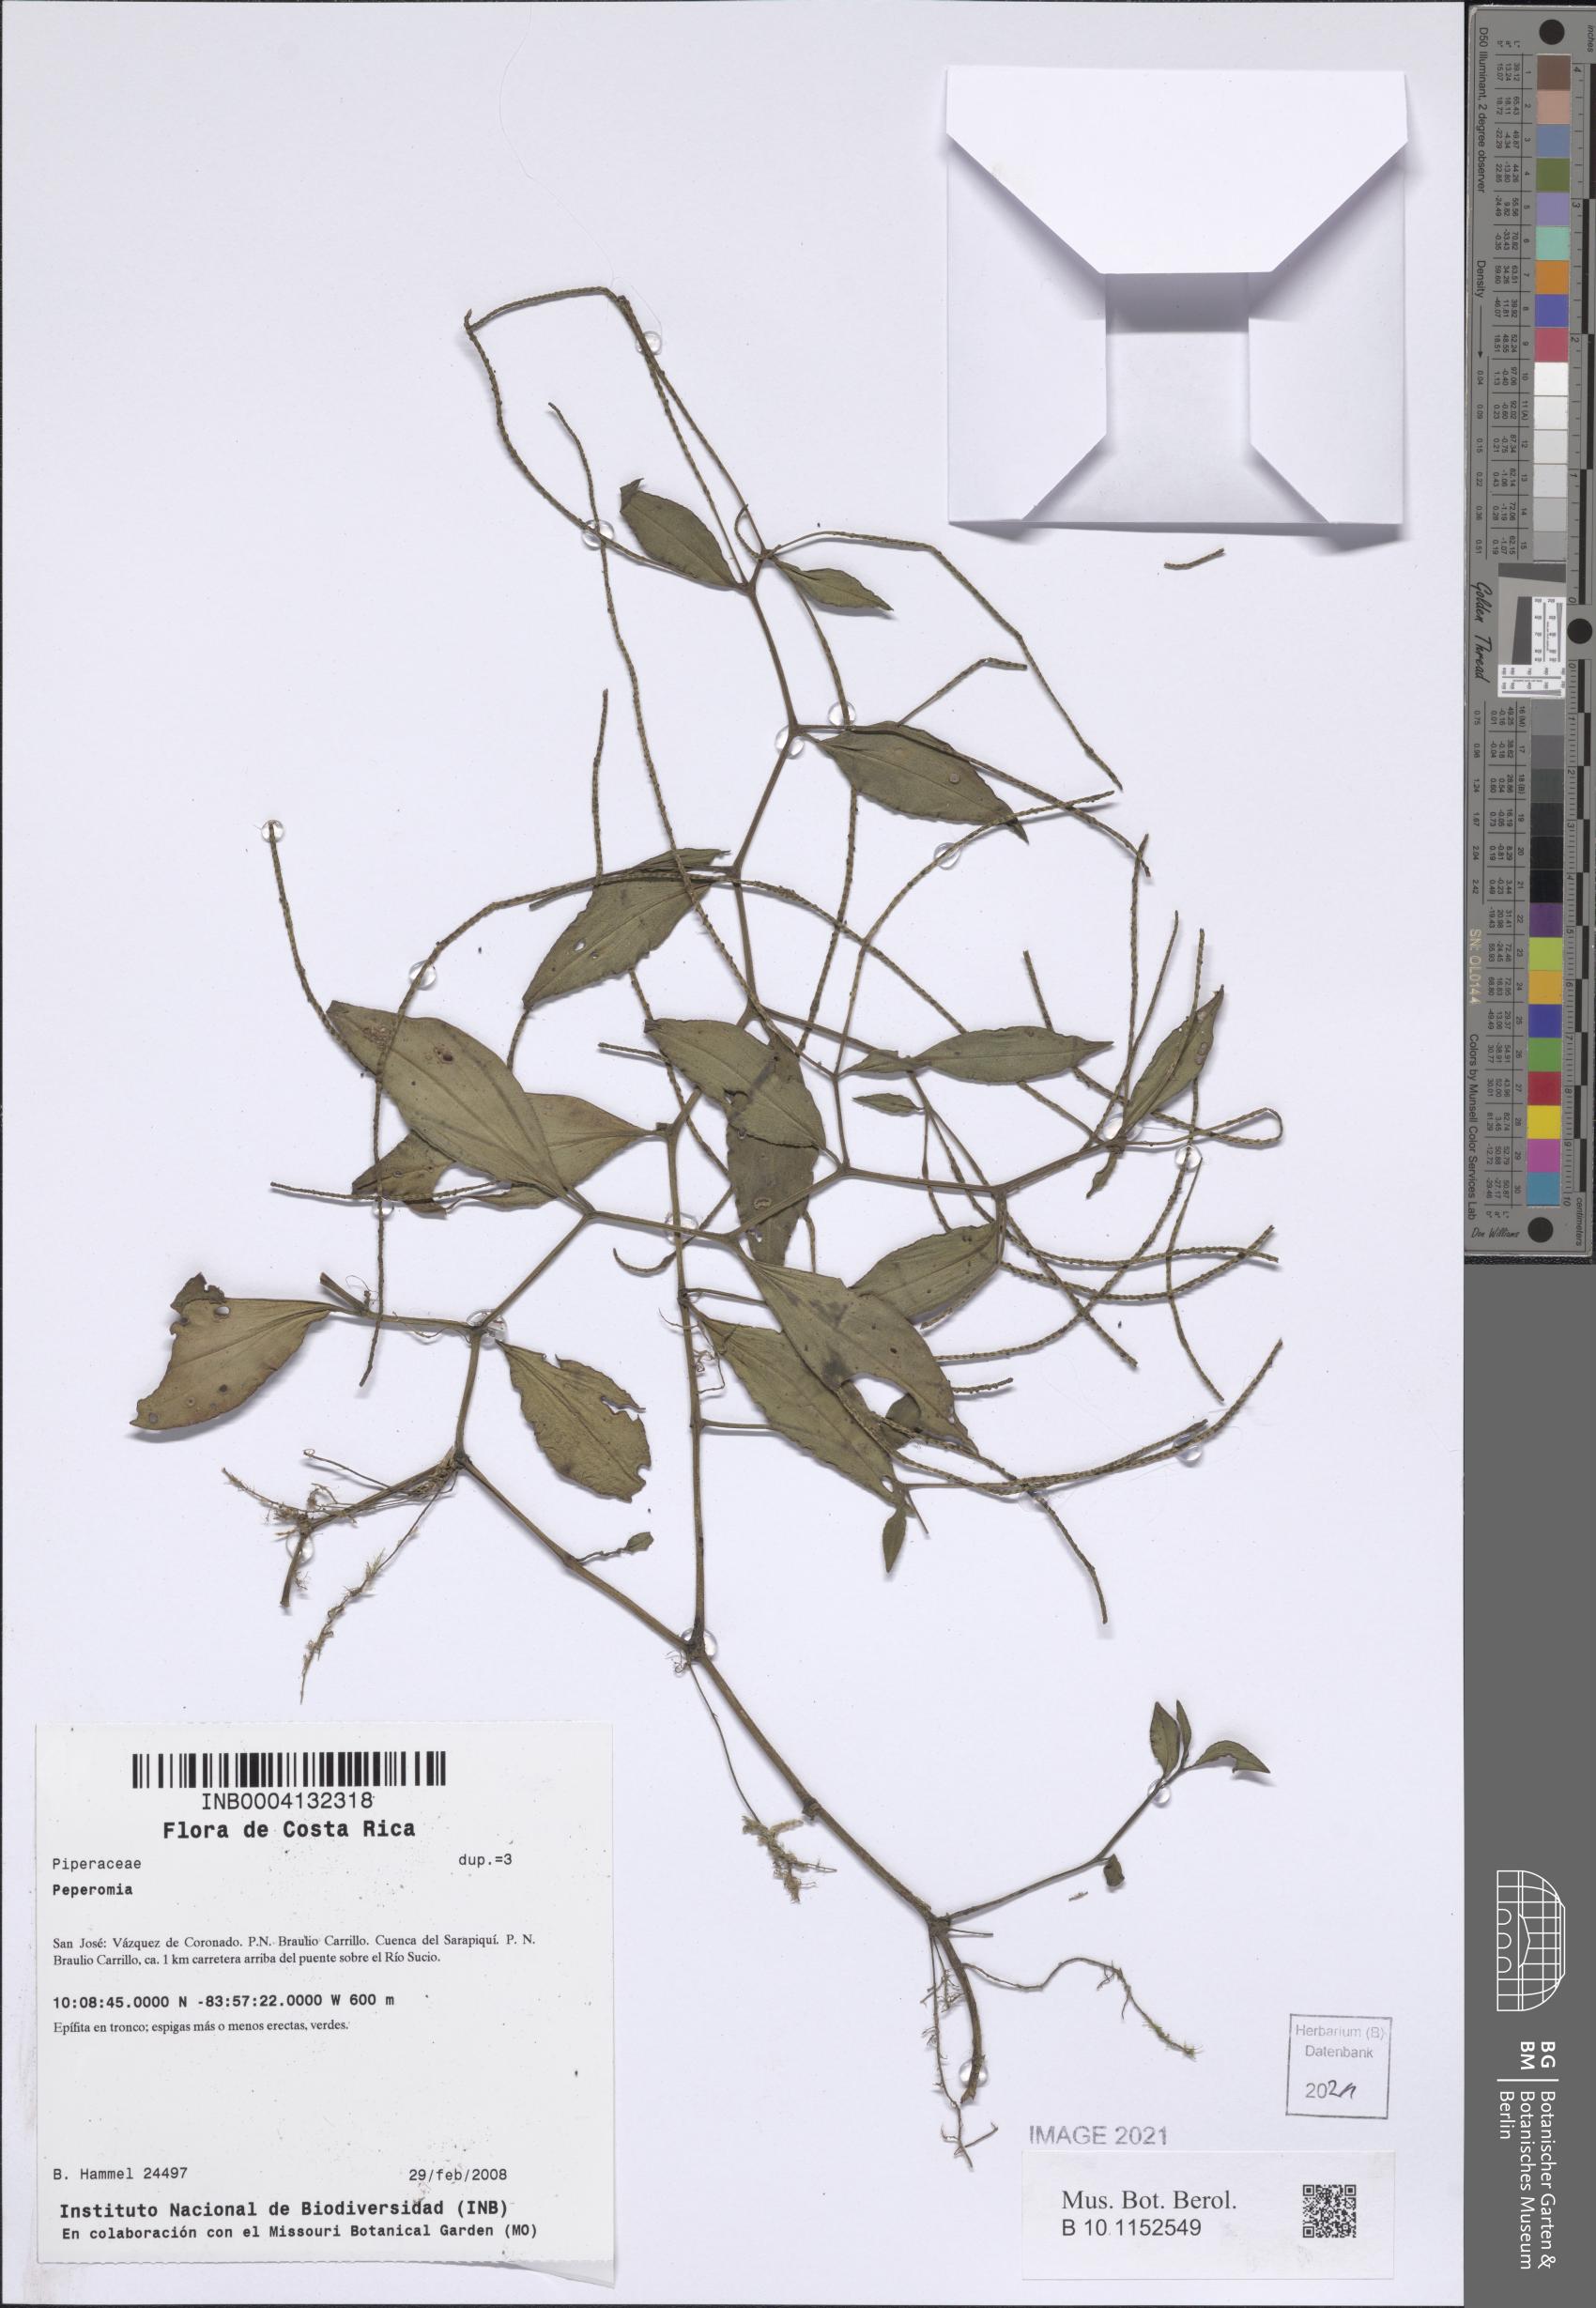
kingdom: Plantae
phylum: Tracheophyta
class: Magnoliopsida
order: Piperales
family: Piperaceae
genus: Peperomia
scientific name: Peperomia
